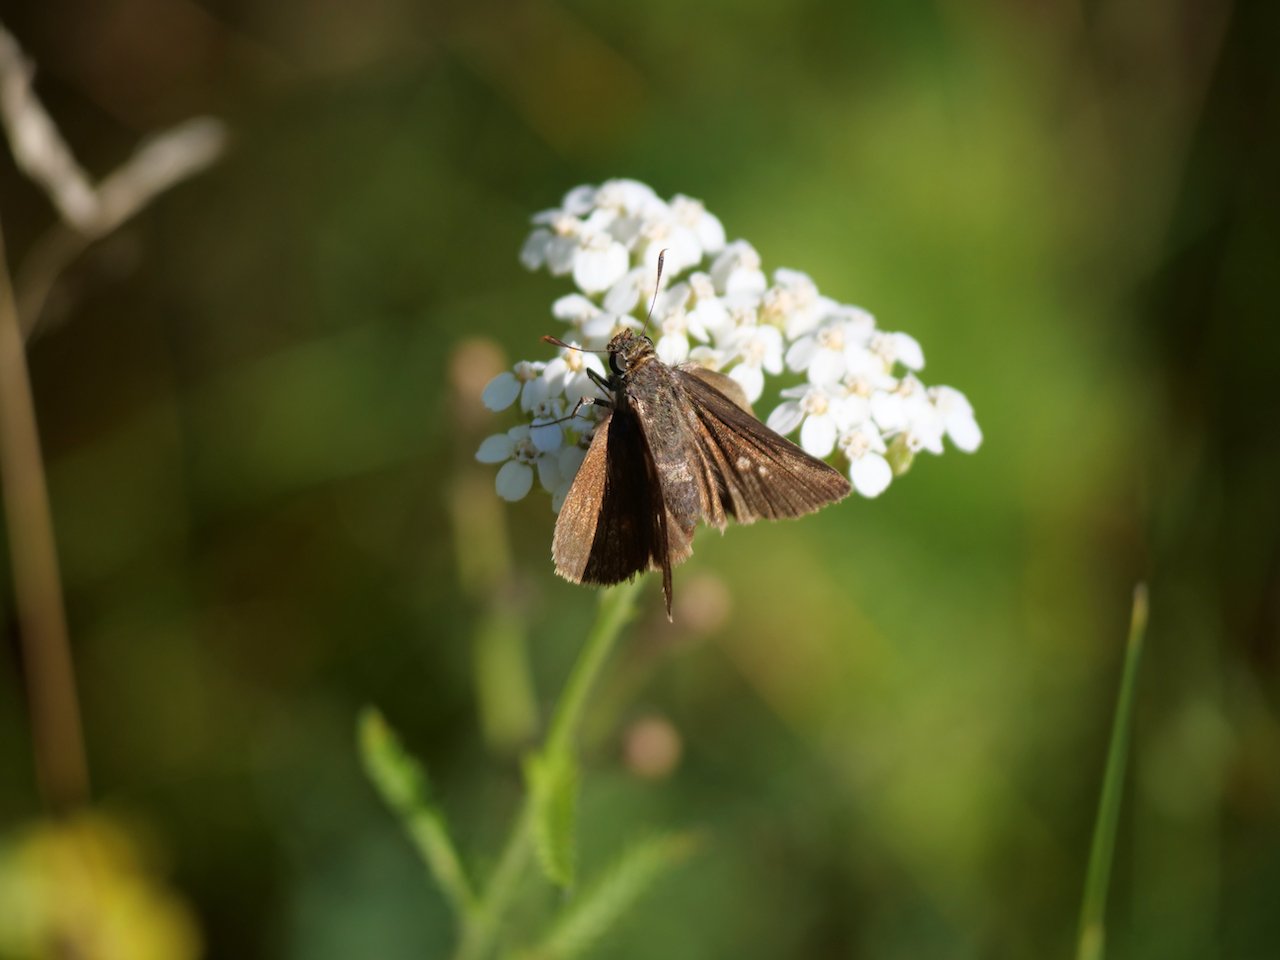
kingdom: Animalia
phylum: Arthropoda
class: Insecta
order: Lepidoptera
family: Hesperiidae
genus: Euphyes
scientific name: Euphyes vestris
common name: Dun Skipper
